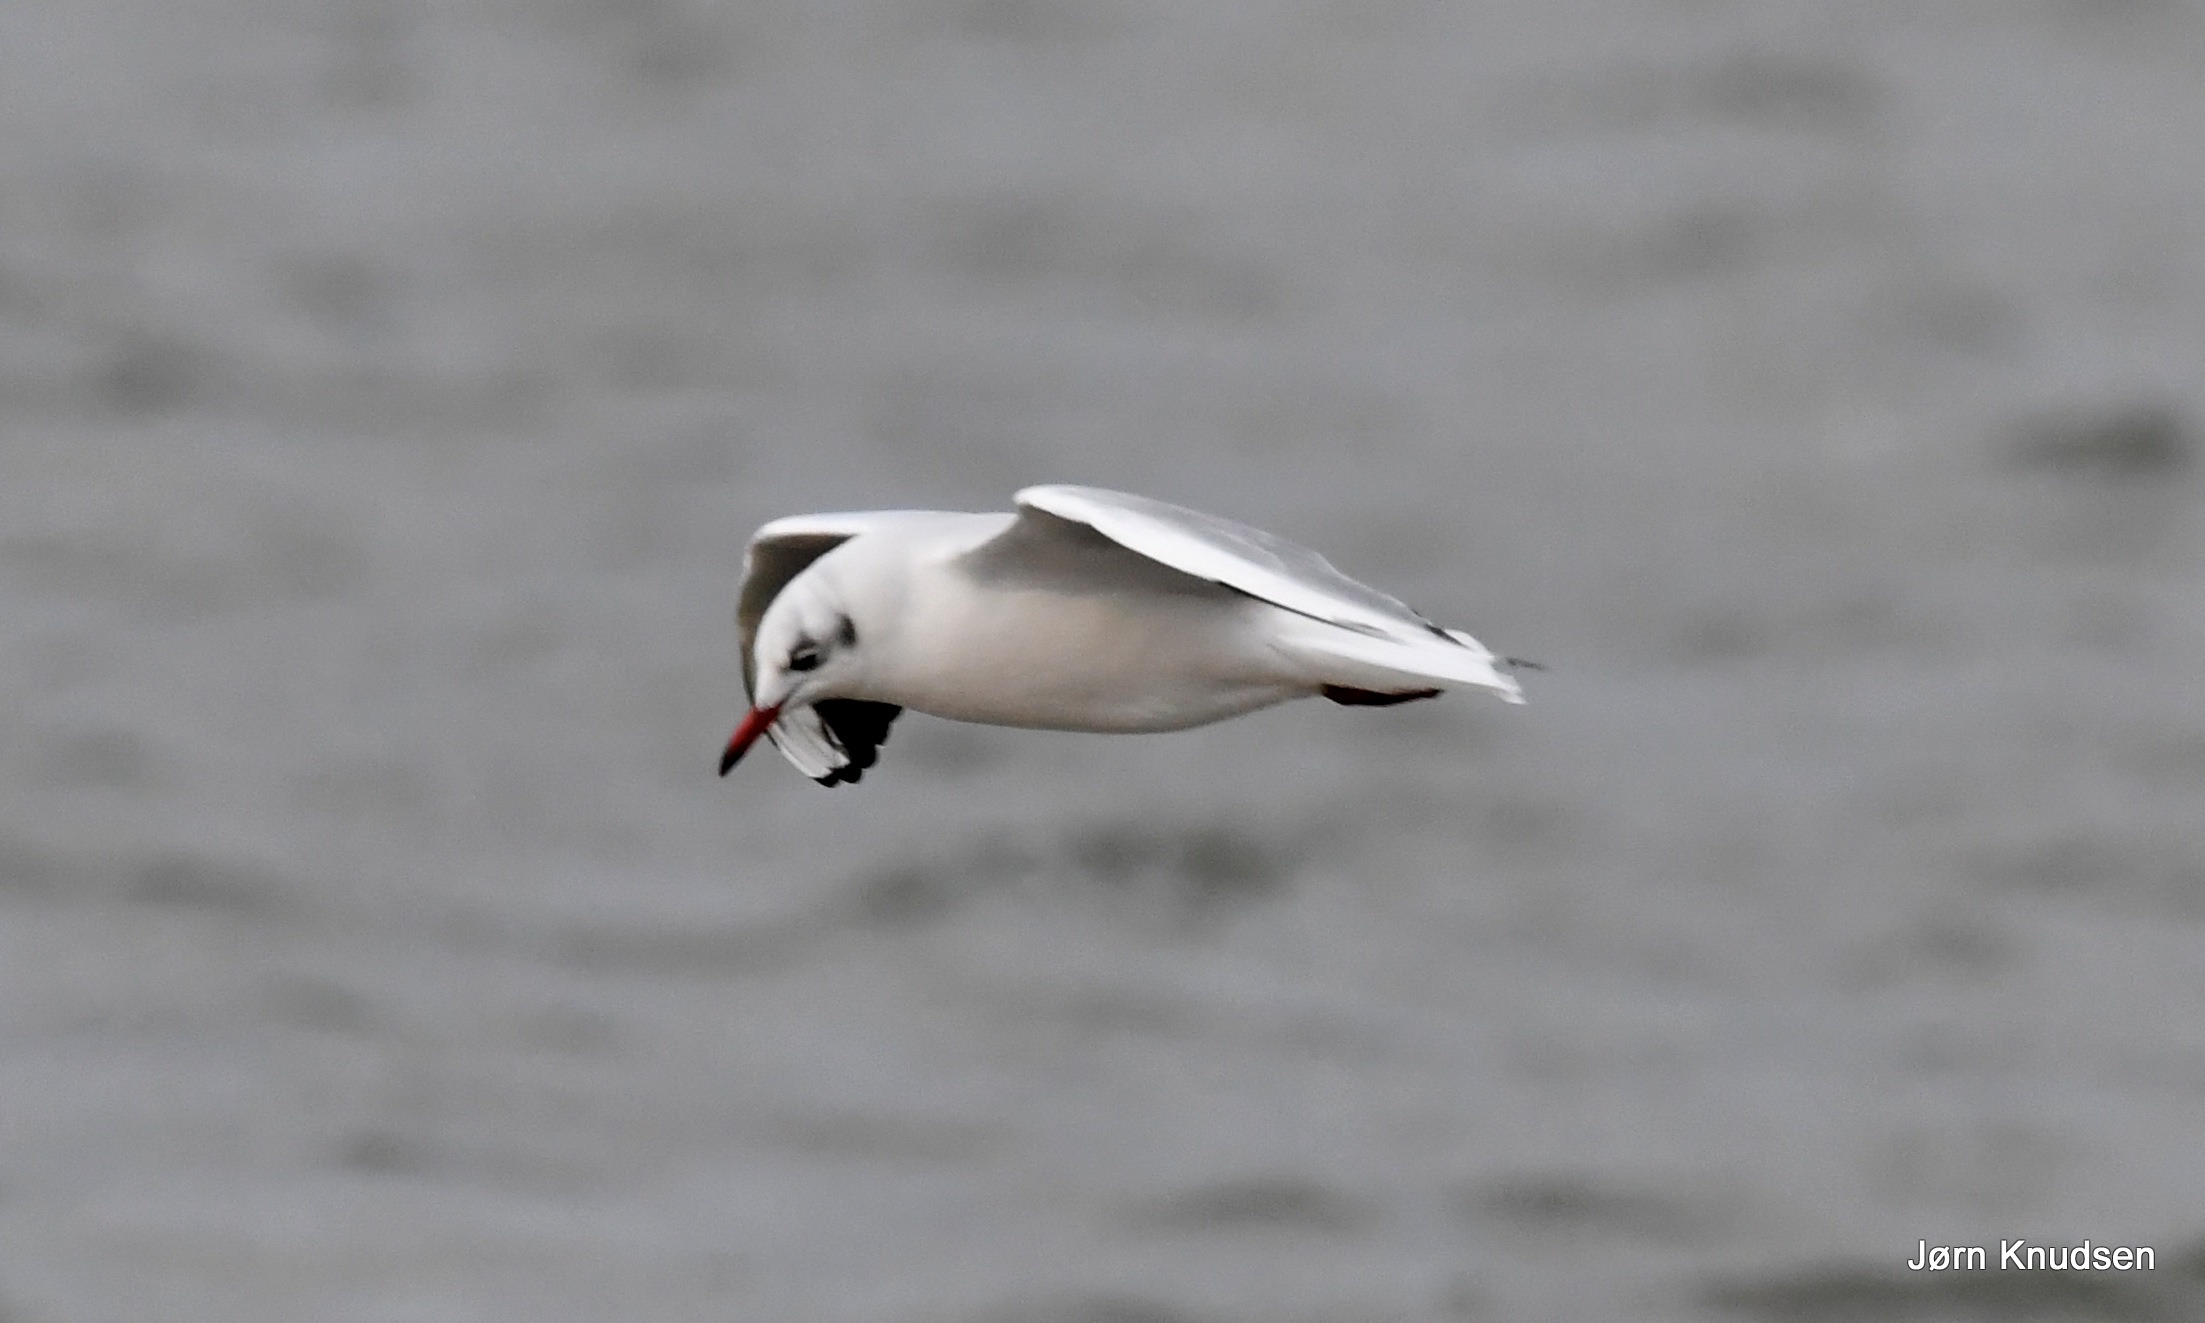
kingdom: Animalia
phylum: Chordata
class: Aves
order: Charadriiformes
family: Laridae
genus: Chroicocephalus
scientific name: Chroicocephalus ridibundus
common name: Hættemåge
